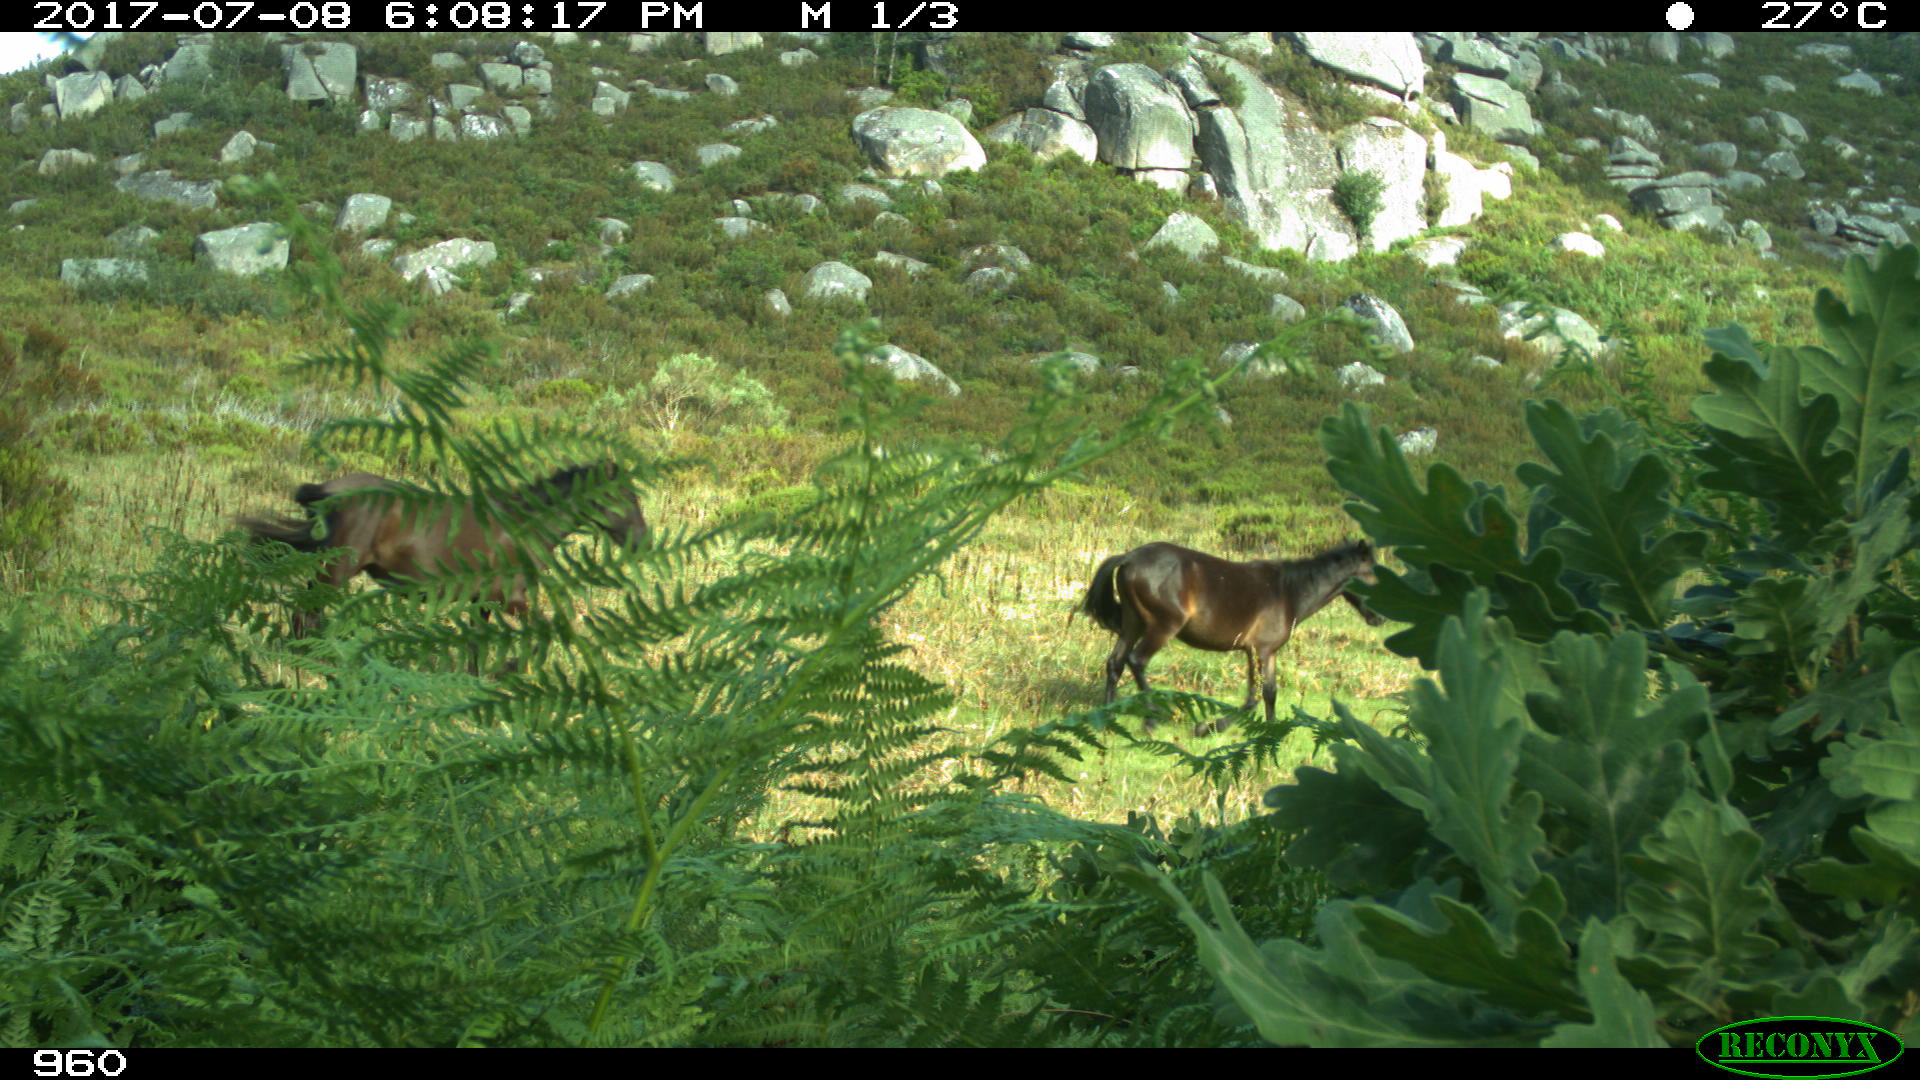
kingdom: Animalia
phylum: Chordata
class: Mammalia
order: Perissodactyla
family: Equidae
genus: Equus
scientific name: Equus caballus
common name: Horse
